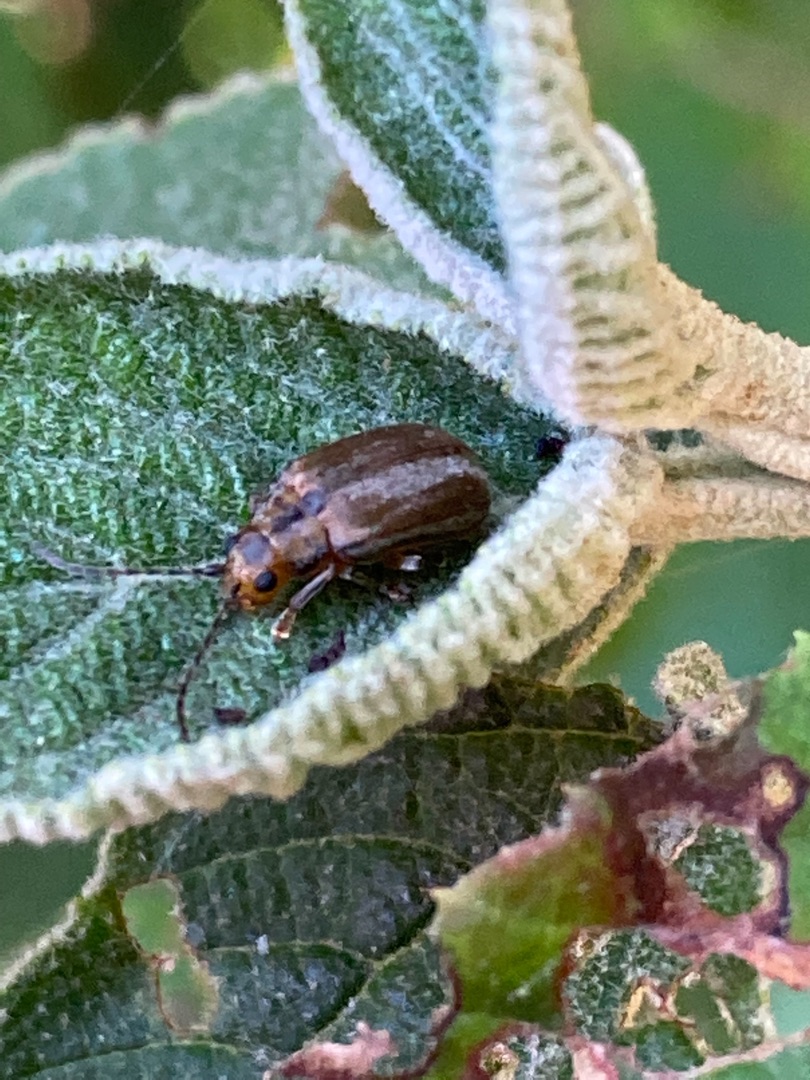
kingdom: Animalia
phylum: Arthropoda
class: Insecta
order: Coleoptera
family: Chrysomelidae
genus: Pyrrhalta
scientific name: Pyrrhalta viburni
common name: Kvalkvedbladbille
